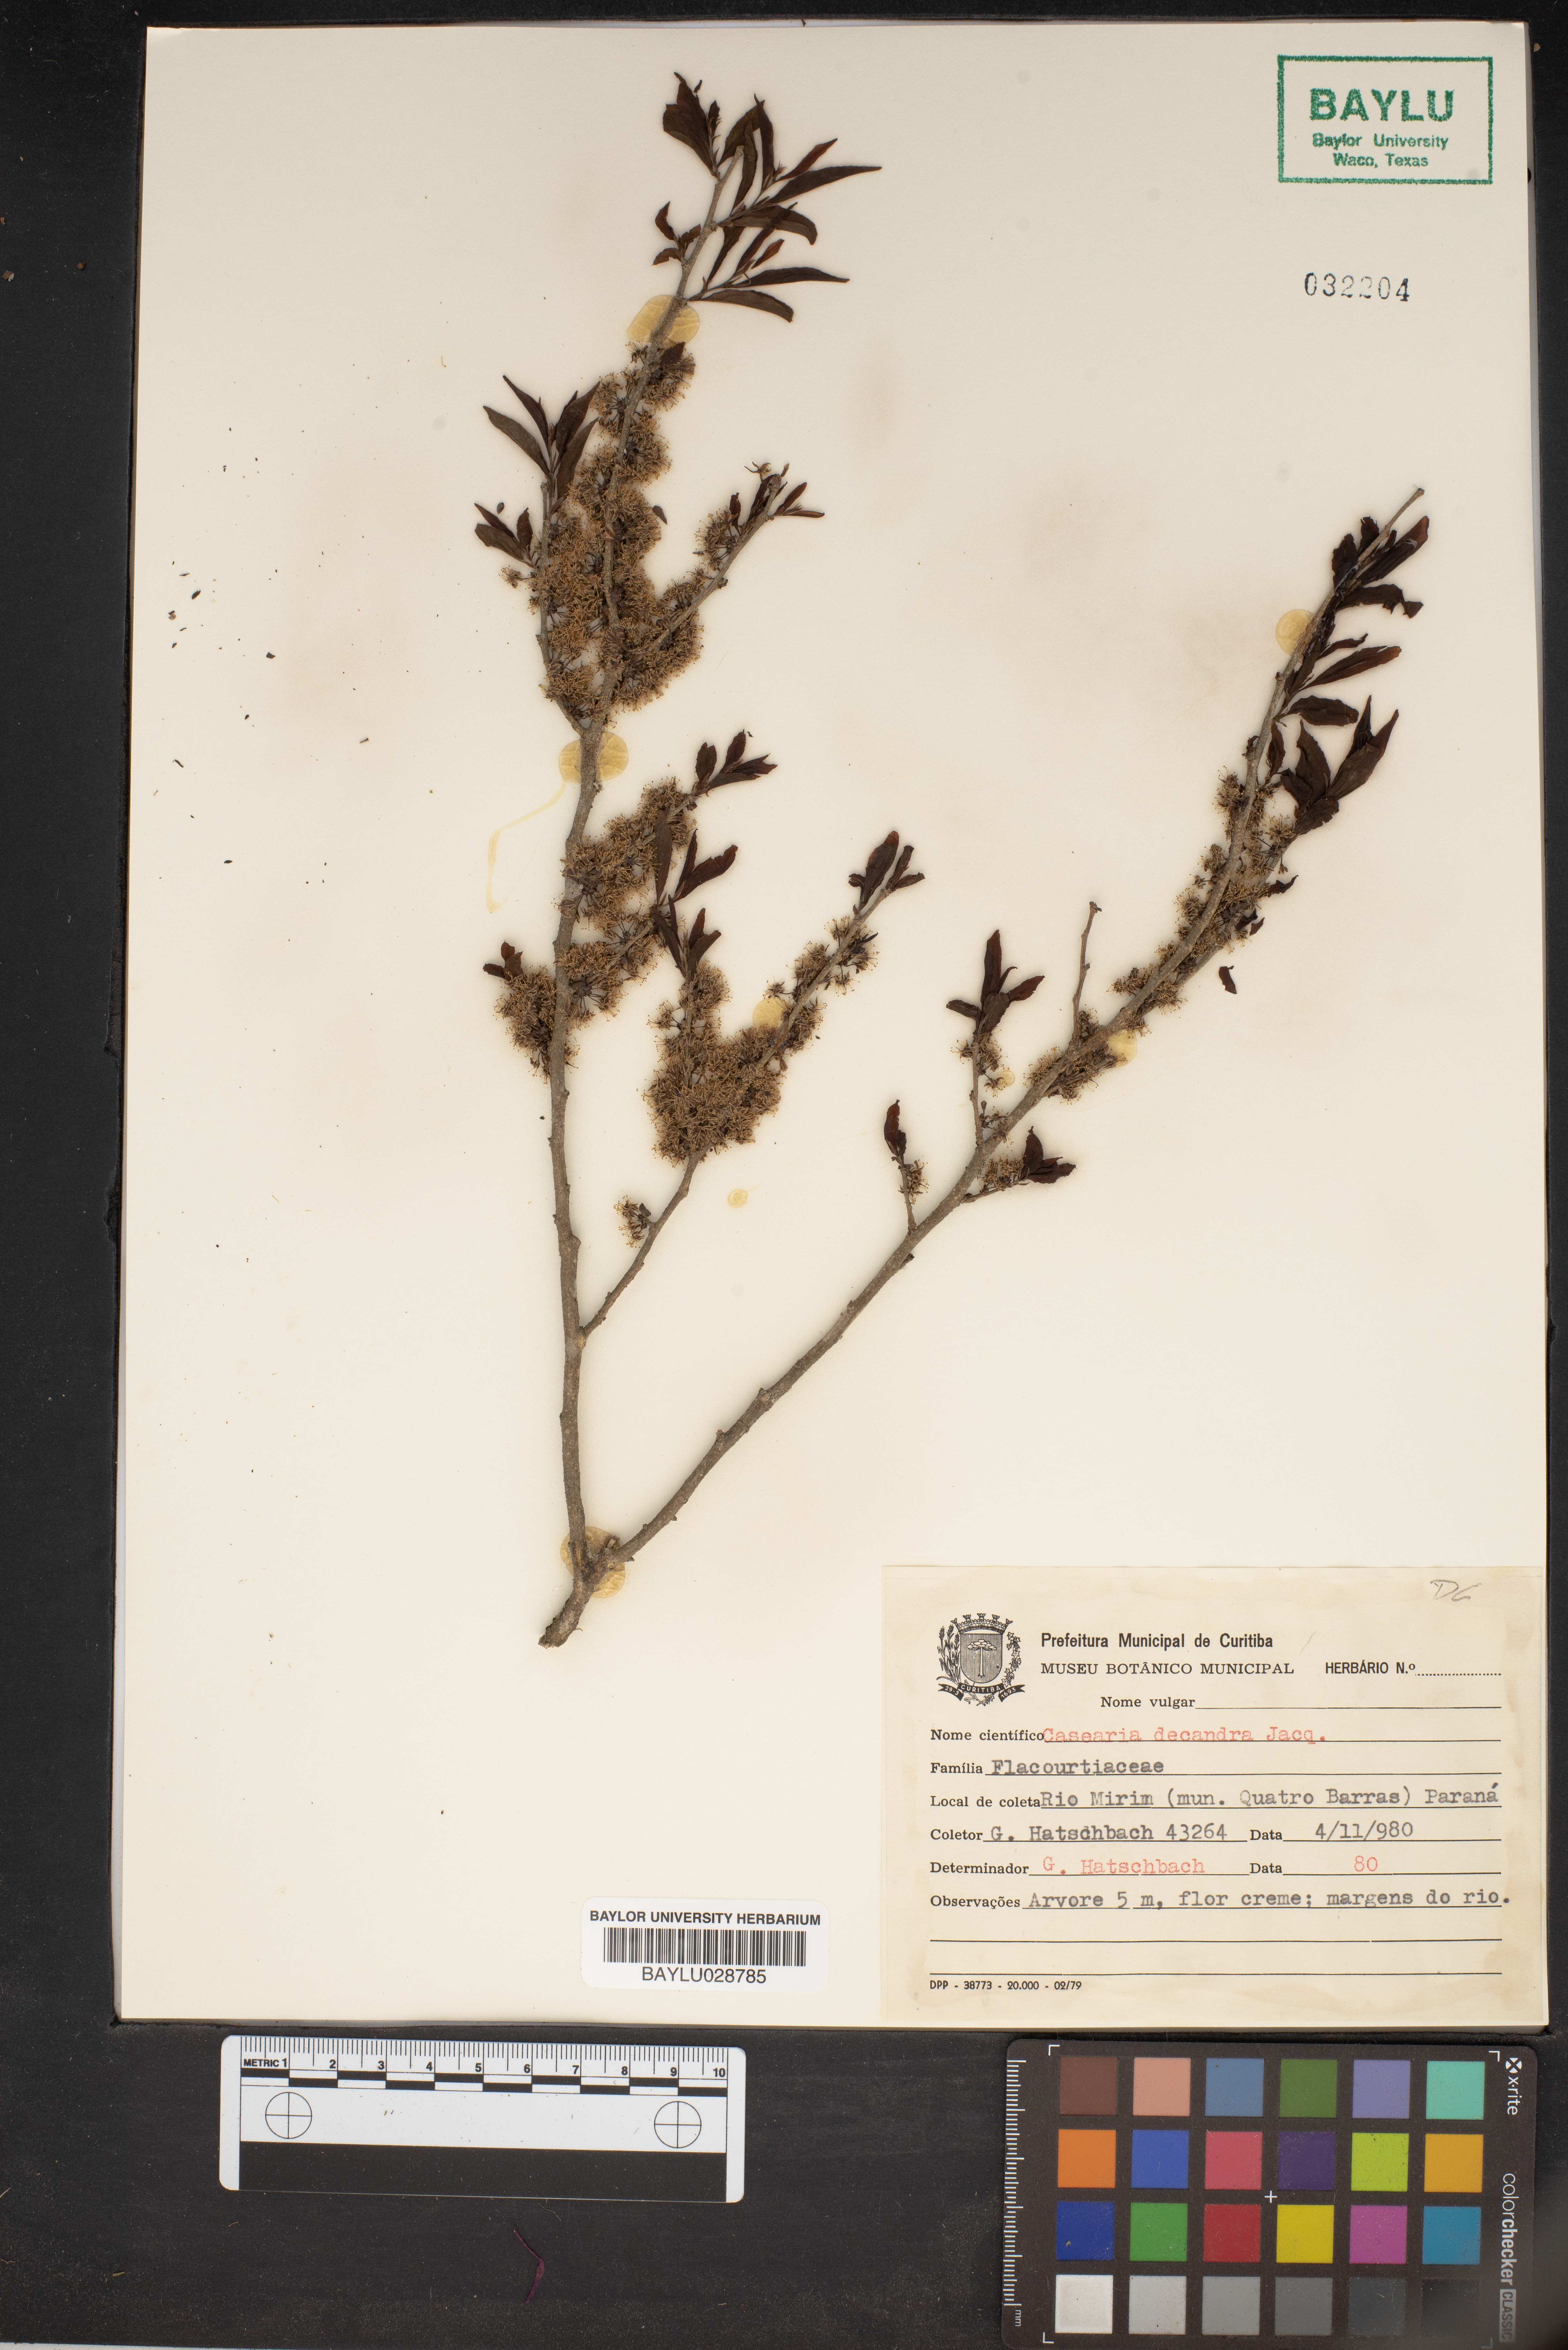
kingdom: Plantae
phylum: Tracheophyta
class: Magnoliopsida
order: Malpighiales
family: Salicaceae
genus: Casearia
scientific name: Casearia decandra
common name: Crack open
